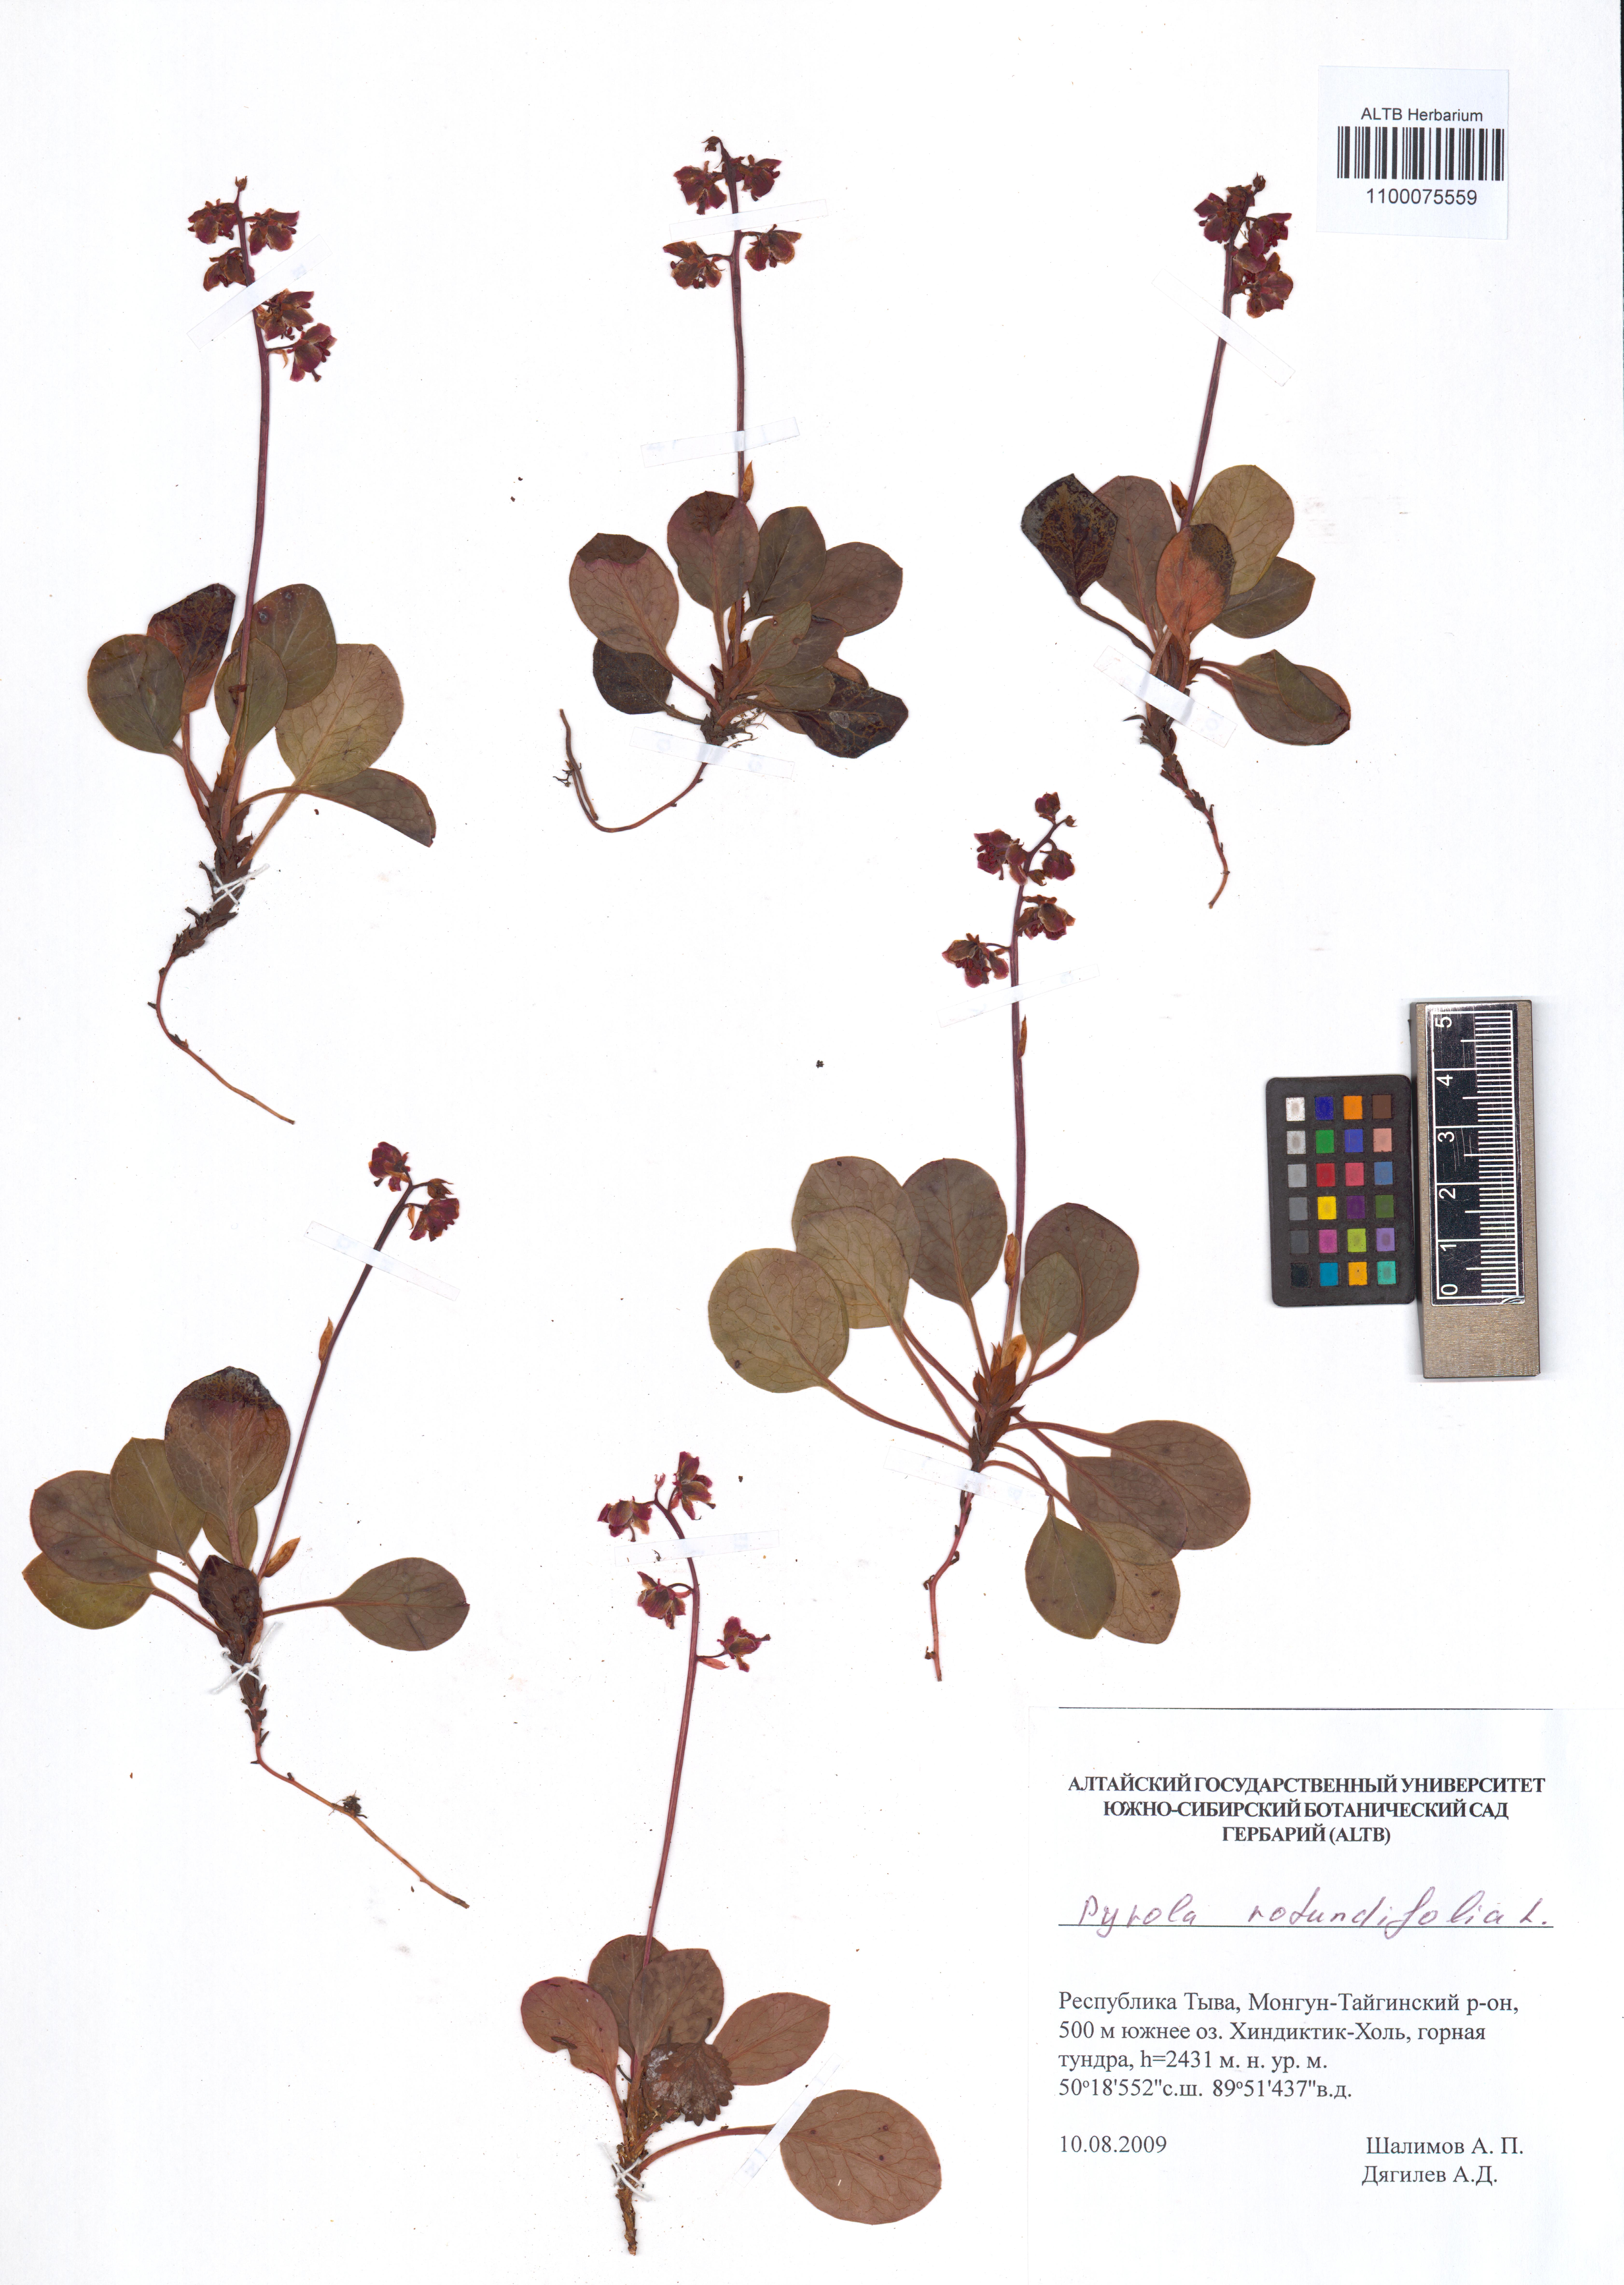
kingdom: Plantae
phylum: Tracheophyta
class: Magnoliopsida
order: Ericales
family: Ericaceae
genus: Pyrola
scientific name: Pyrola rotundifolia
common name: Round-leaved wintergreen
